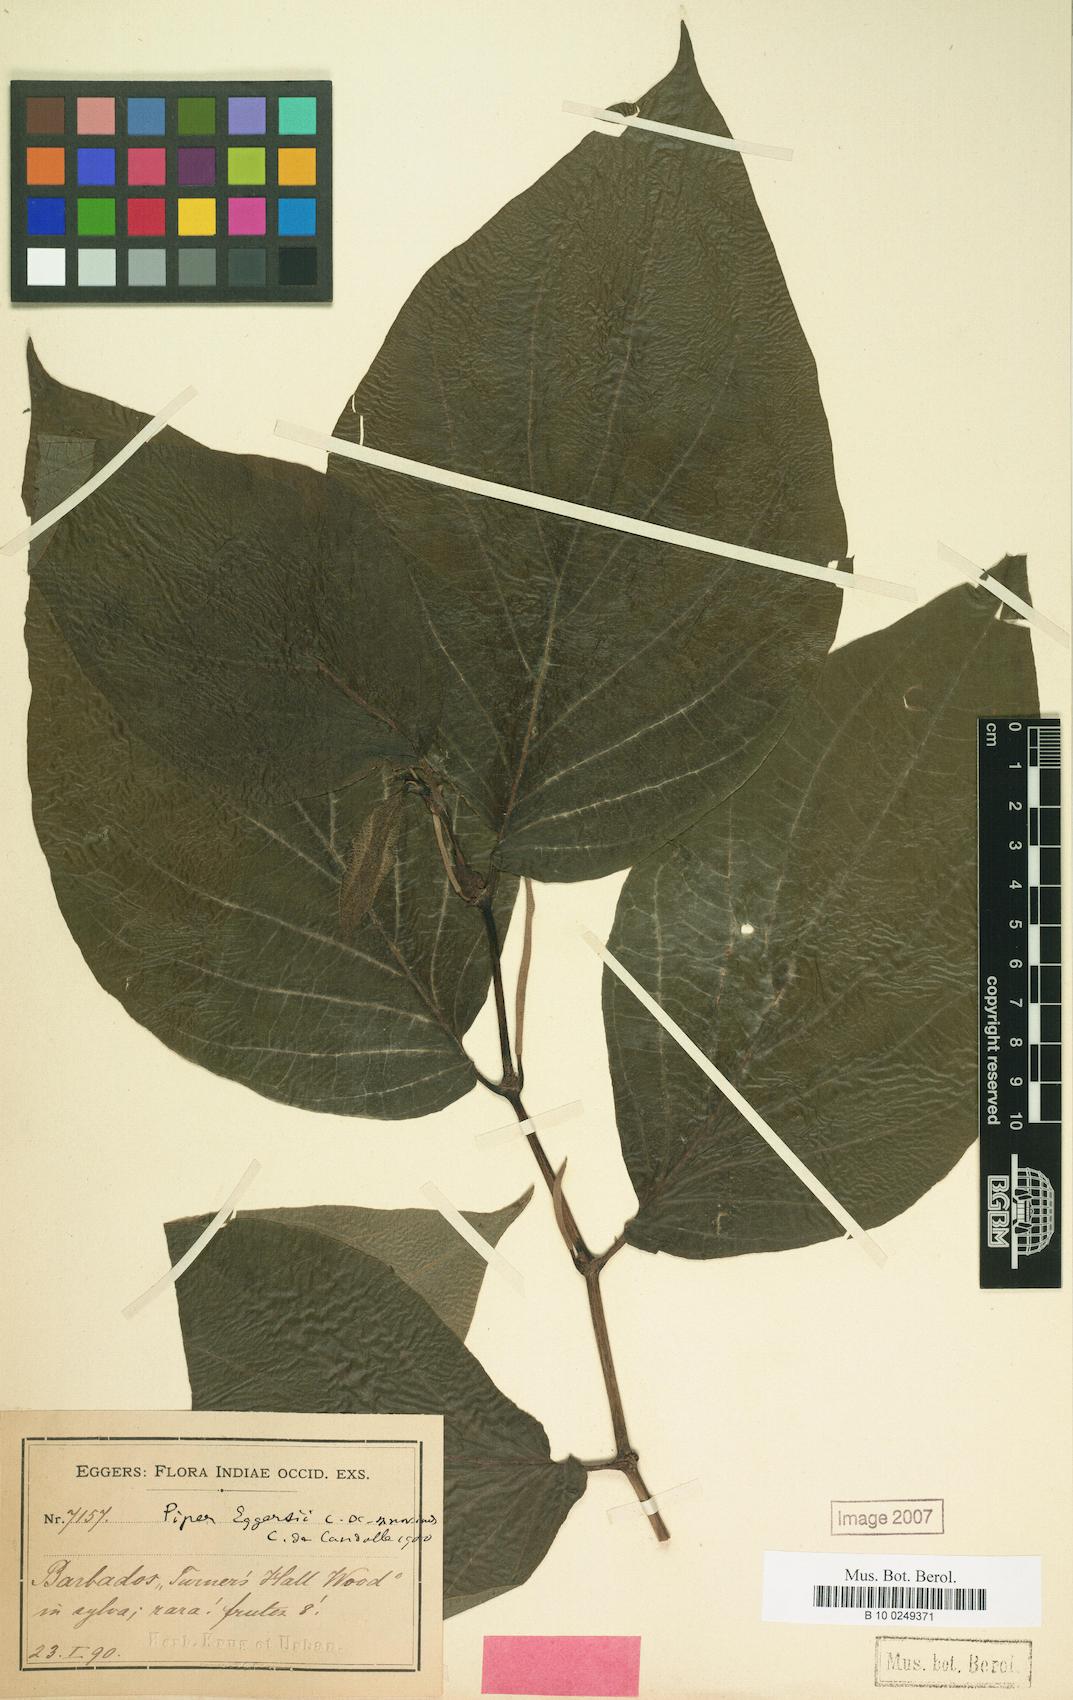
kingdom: Plantae
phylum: Tracheophyta
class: Magnoliopsida
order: Piperales
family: Piperaceae
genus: Piper
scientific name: Piper dilatatum
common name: Higuillo
